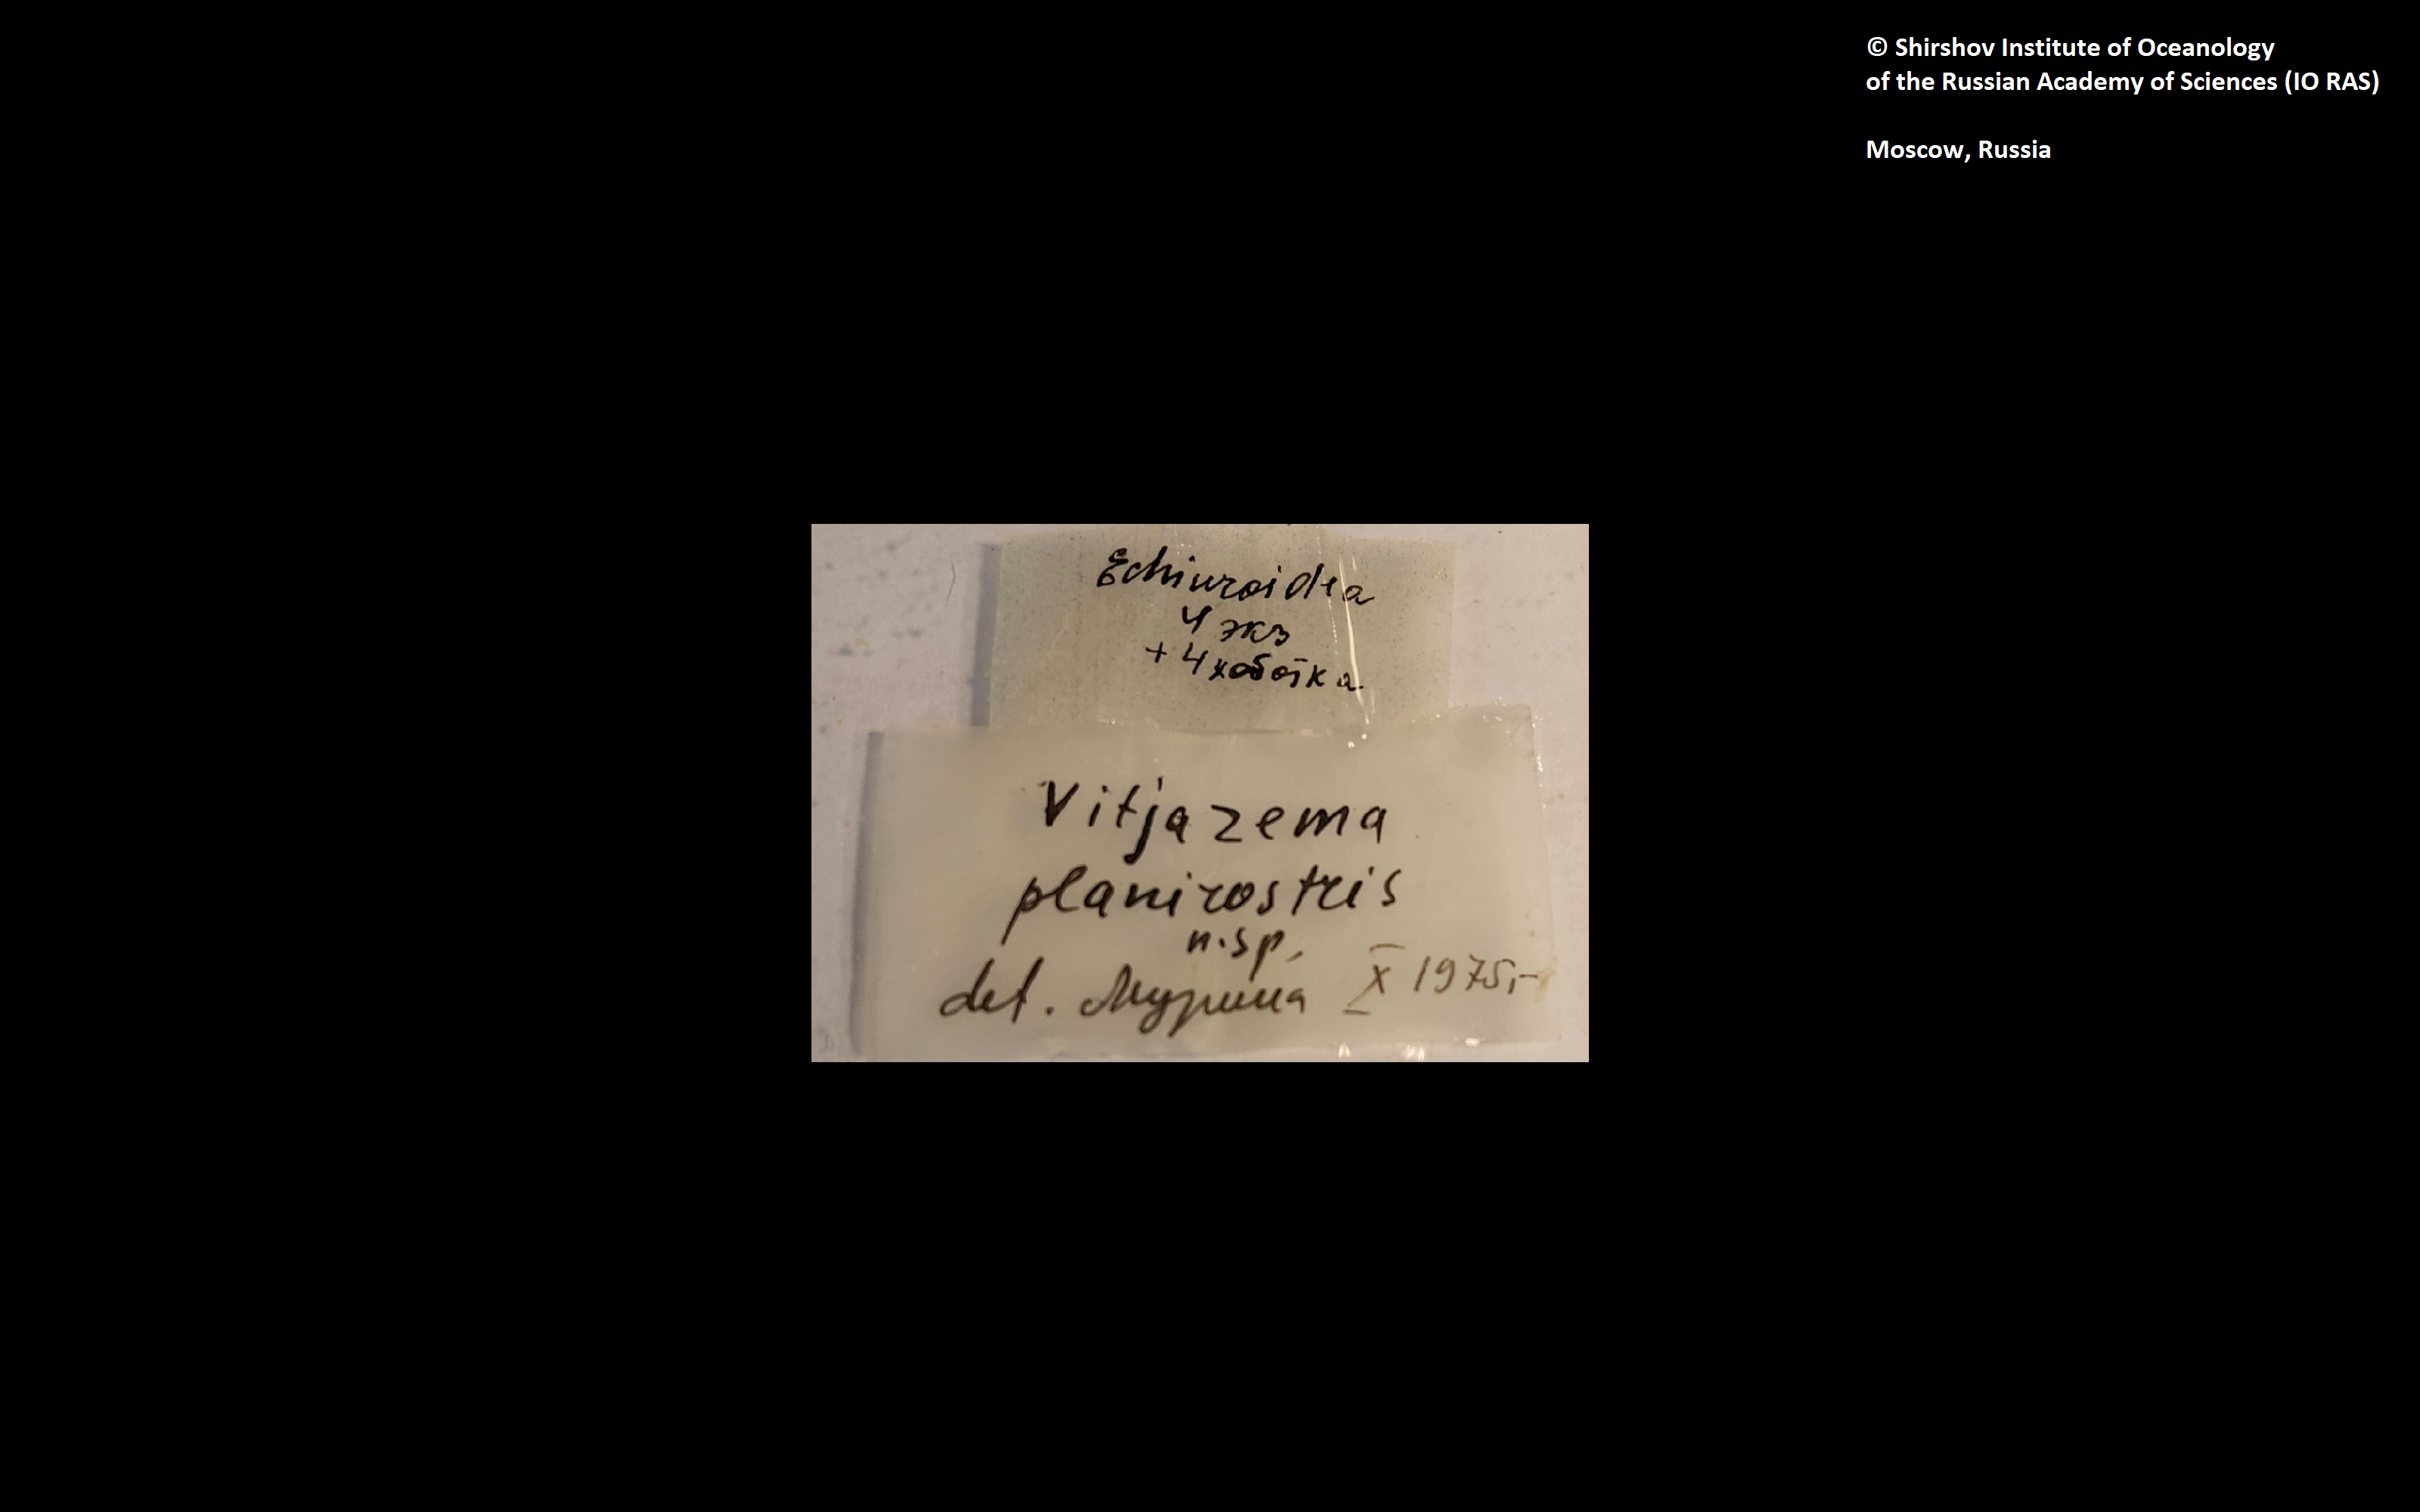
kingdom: Animalia
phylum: Annelida
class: Polychaeta
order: Echiuroidea
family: Bonelliidae
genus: Vitjazema
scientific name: Vitjazema planirostris
